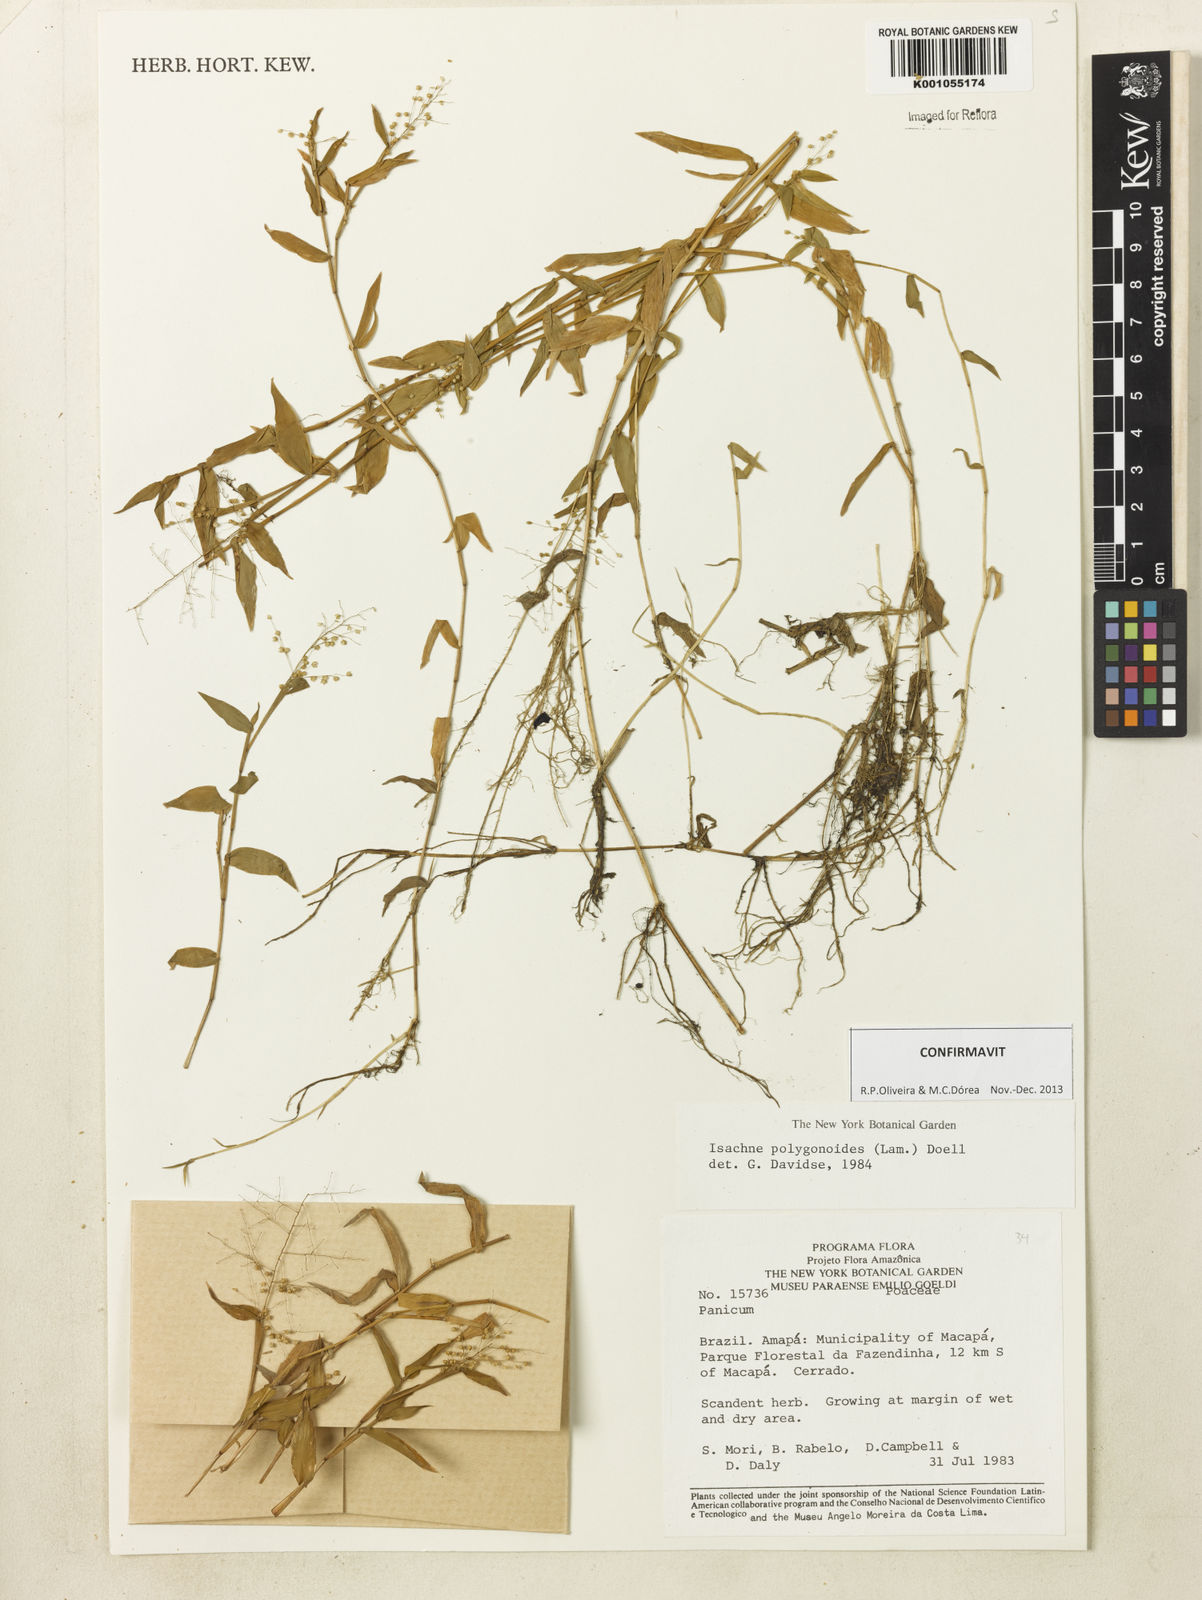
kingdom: Plantae
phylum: Tracheophyta
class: Liliopsida
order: Poales
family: Poaceae
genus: Isachne
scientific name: Isachne
